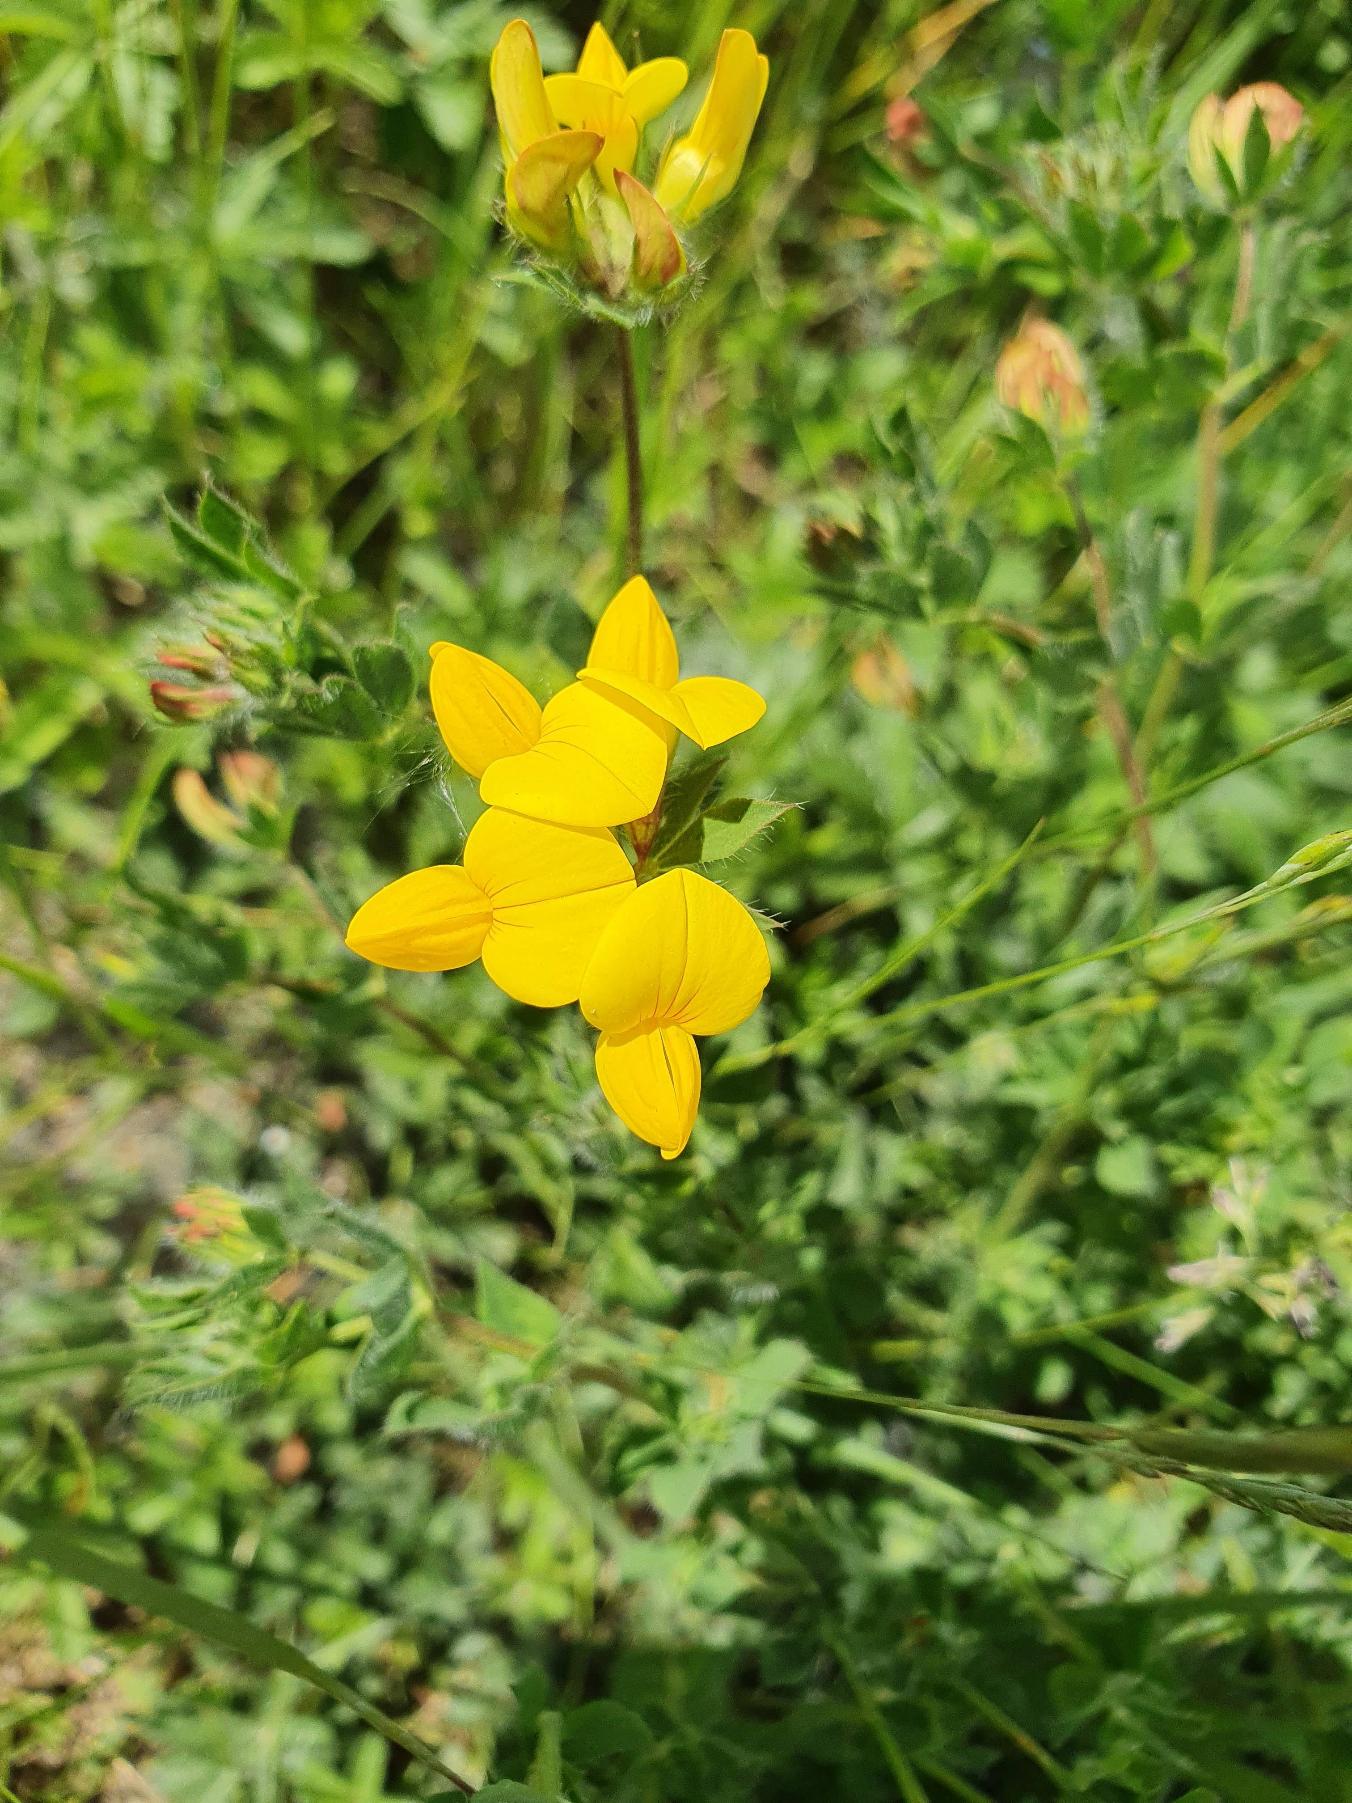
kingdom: Plantae
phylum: Tracheophyta
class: Magnoliopsida
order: Fabales
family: Fabaceae
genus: Lotus
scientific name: Lotus corniculatus
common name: Almindelig kællingetand
